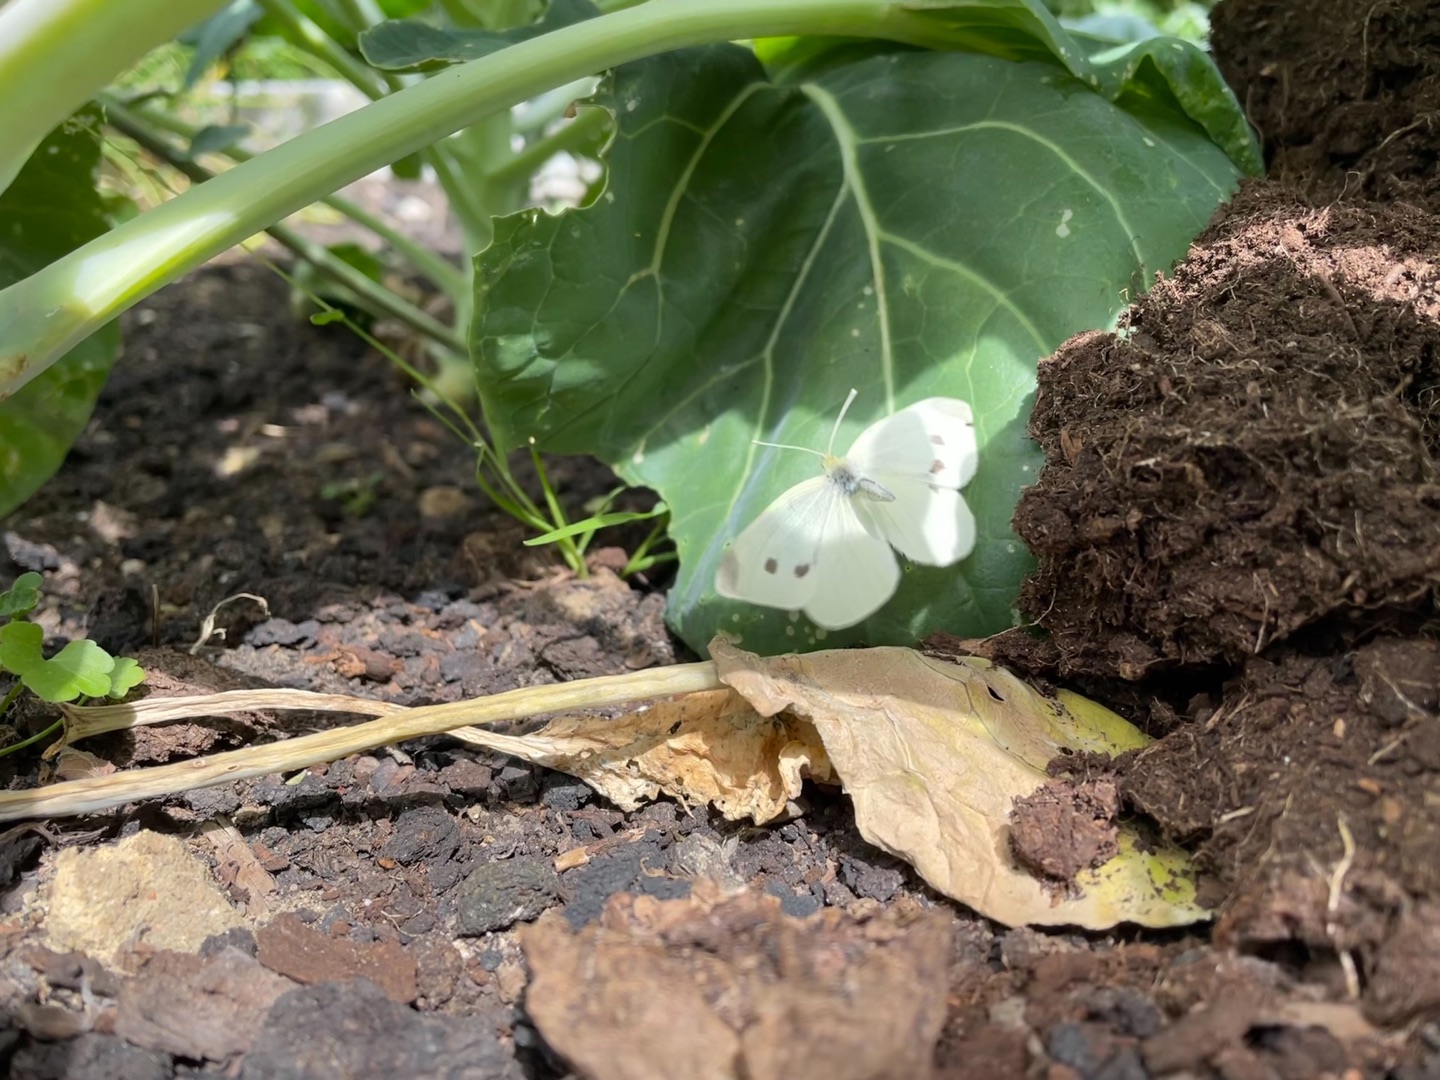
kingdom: Animalia
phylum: Arthropoda
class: Insecta
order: Lepidoptera
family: Pieridae
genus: Pieris
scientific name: Pieris rapae
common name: Lille kålsommerfugl
